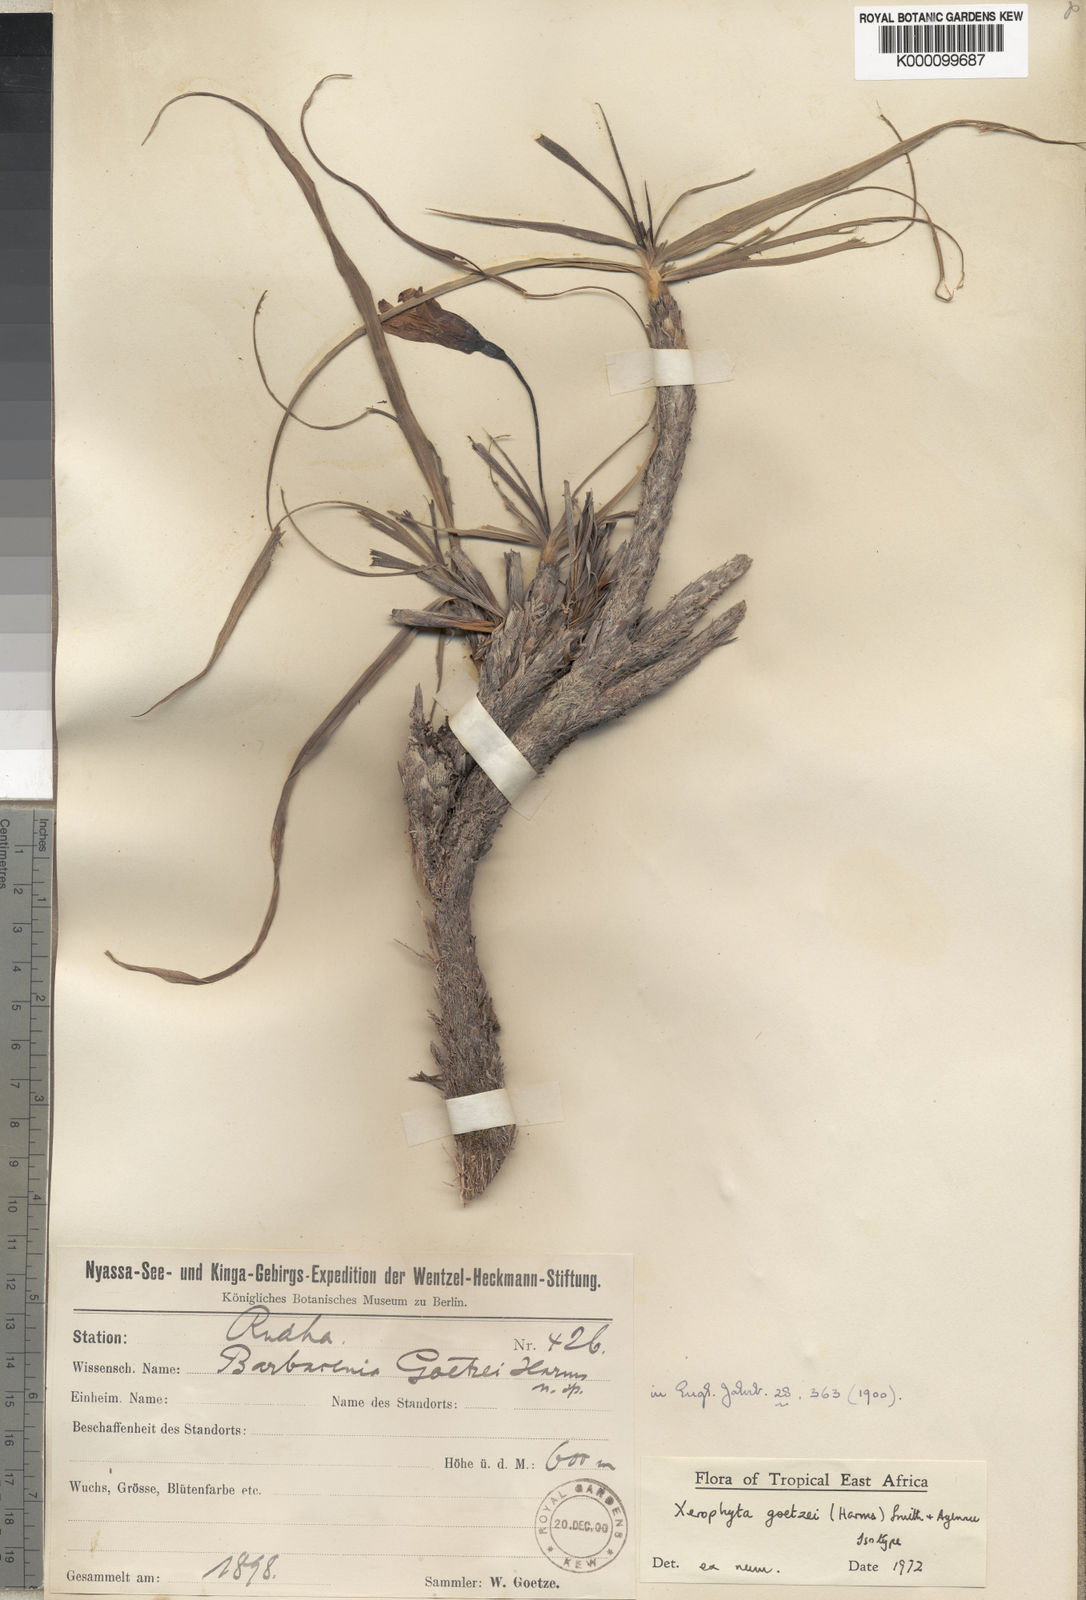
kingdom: Plantae
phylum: Tracheophyta
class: Liliopsida
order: Pandanales
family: Velloziaceae
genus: Xerophyta
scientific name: Xerophyta goetzei
